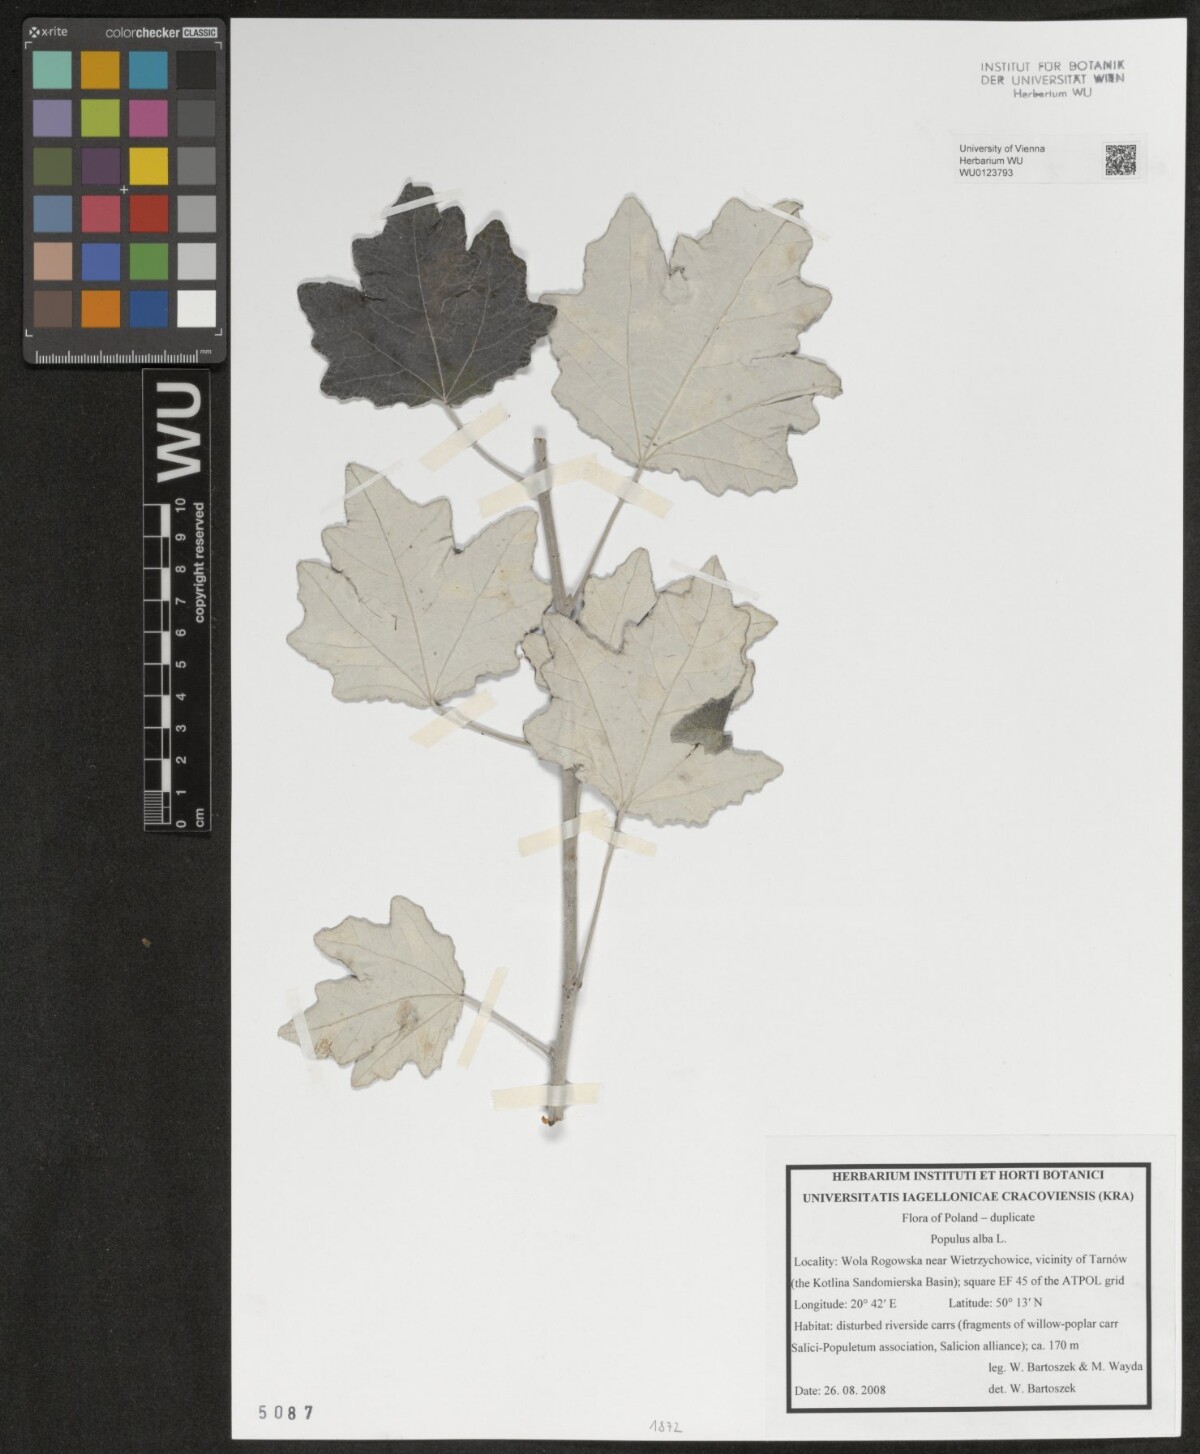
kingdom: Plantae
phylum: Tracheophyta
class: Magnoliopsida
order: Malpighiales
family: Salicaceae
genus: Populus
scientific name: Populus alba
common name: White poplar
